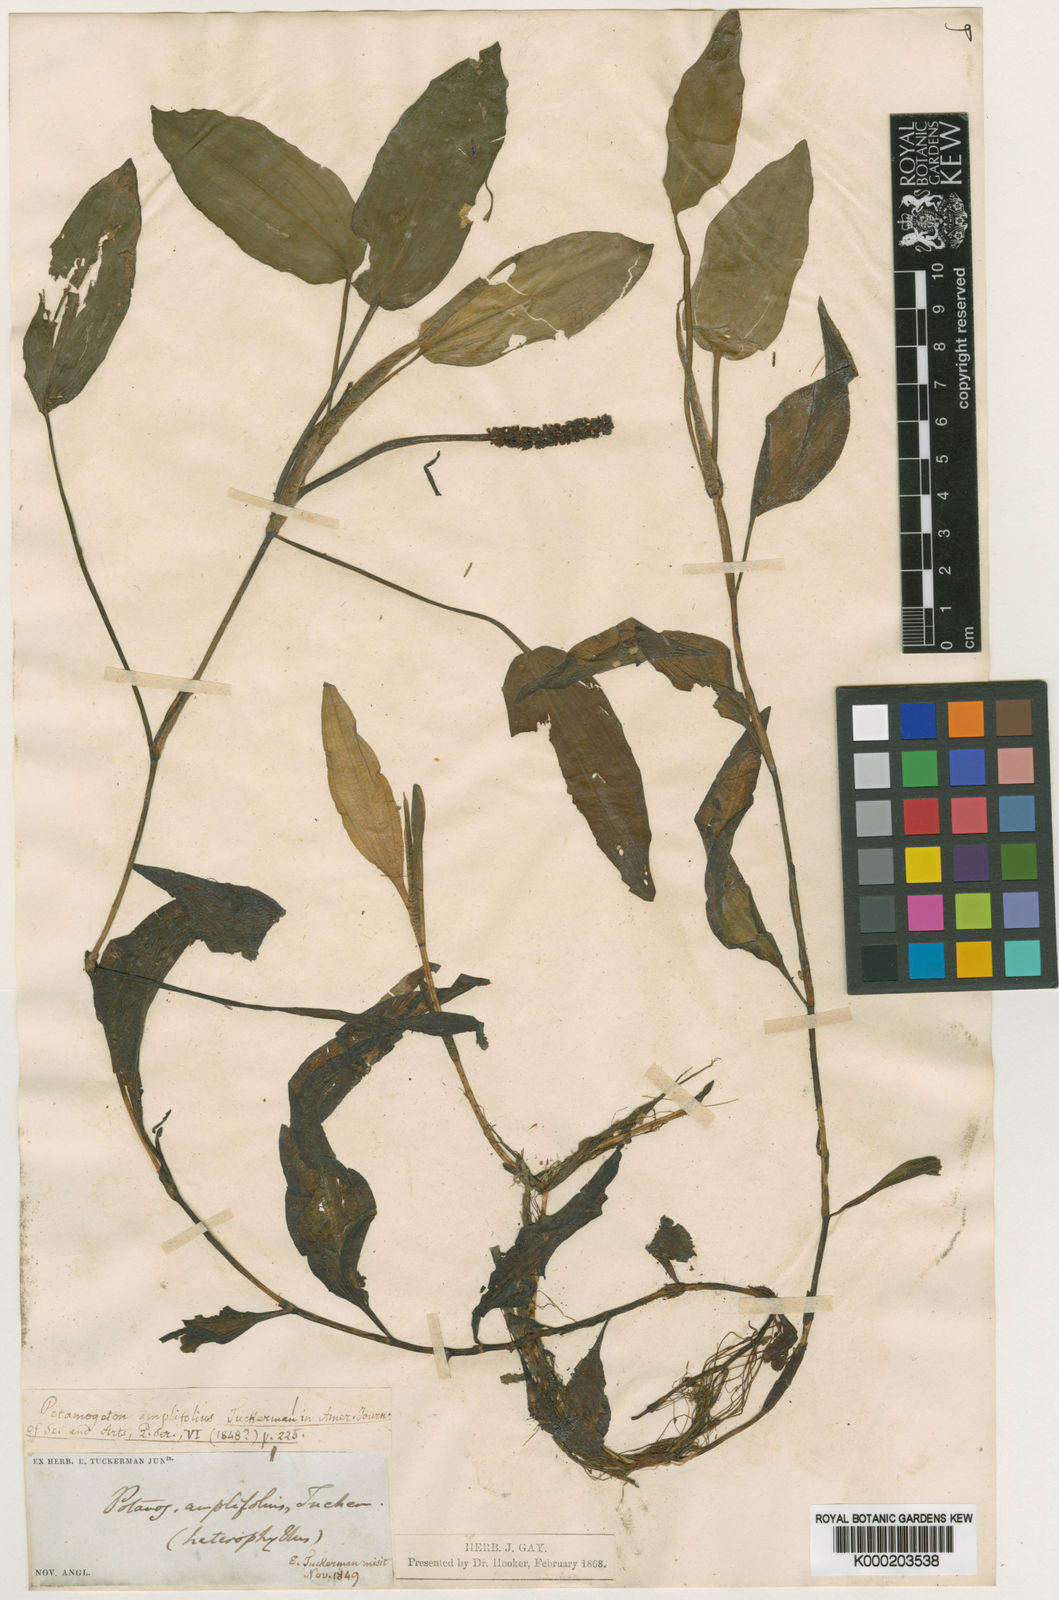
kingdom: Plantae
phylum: Tracheophyta
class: Liliopsida
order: Alismatales
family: Potamogetonaceae
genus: Potamogeton
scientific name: Potamogeton amplifolius
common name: Broad-leaved pondweed
